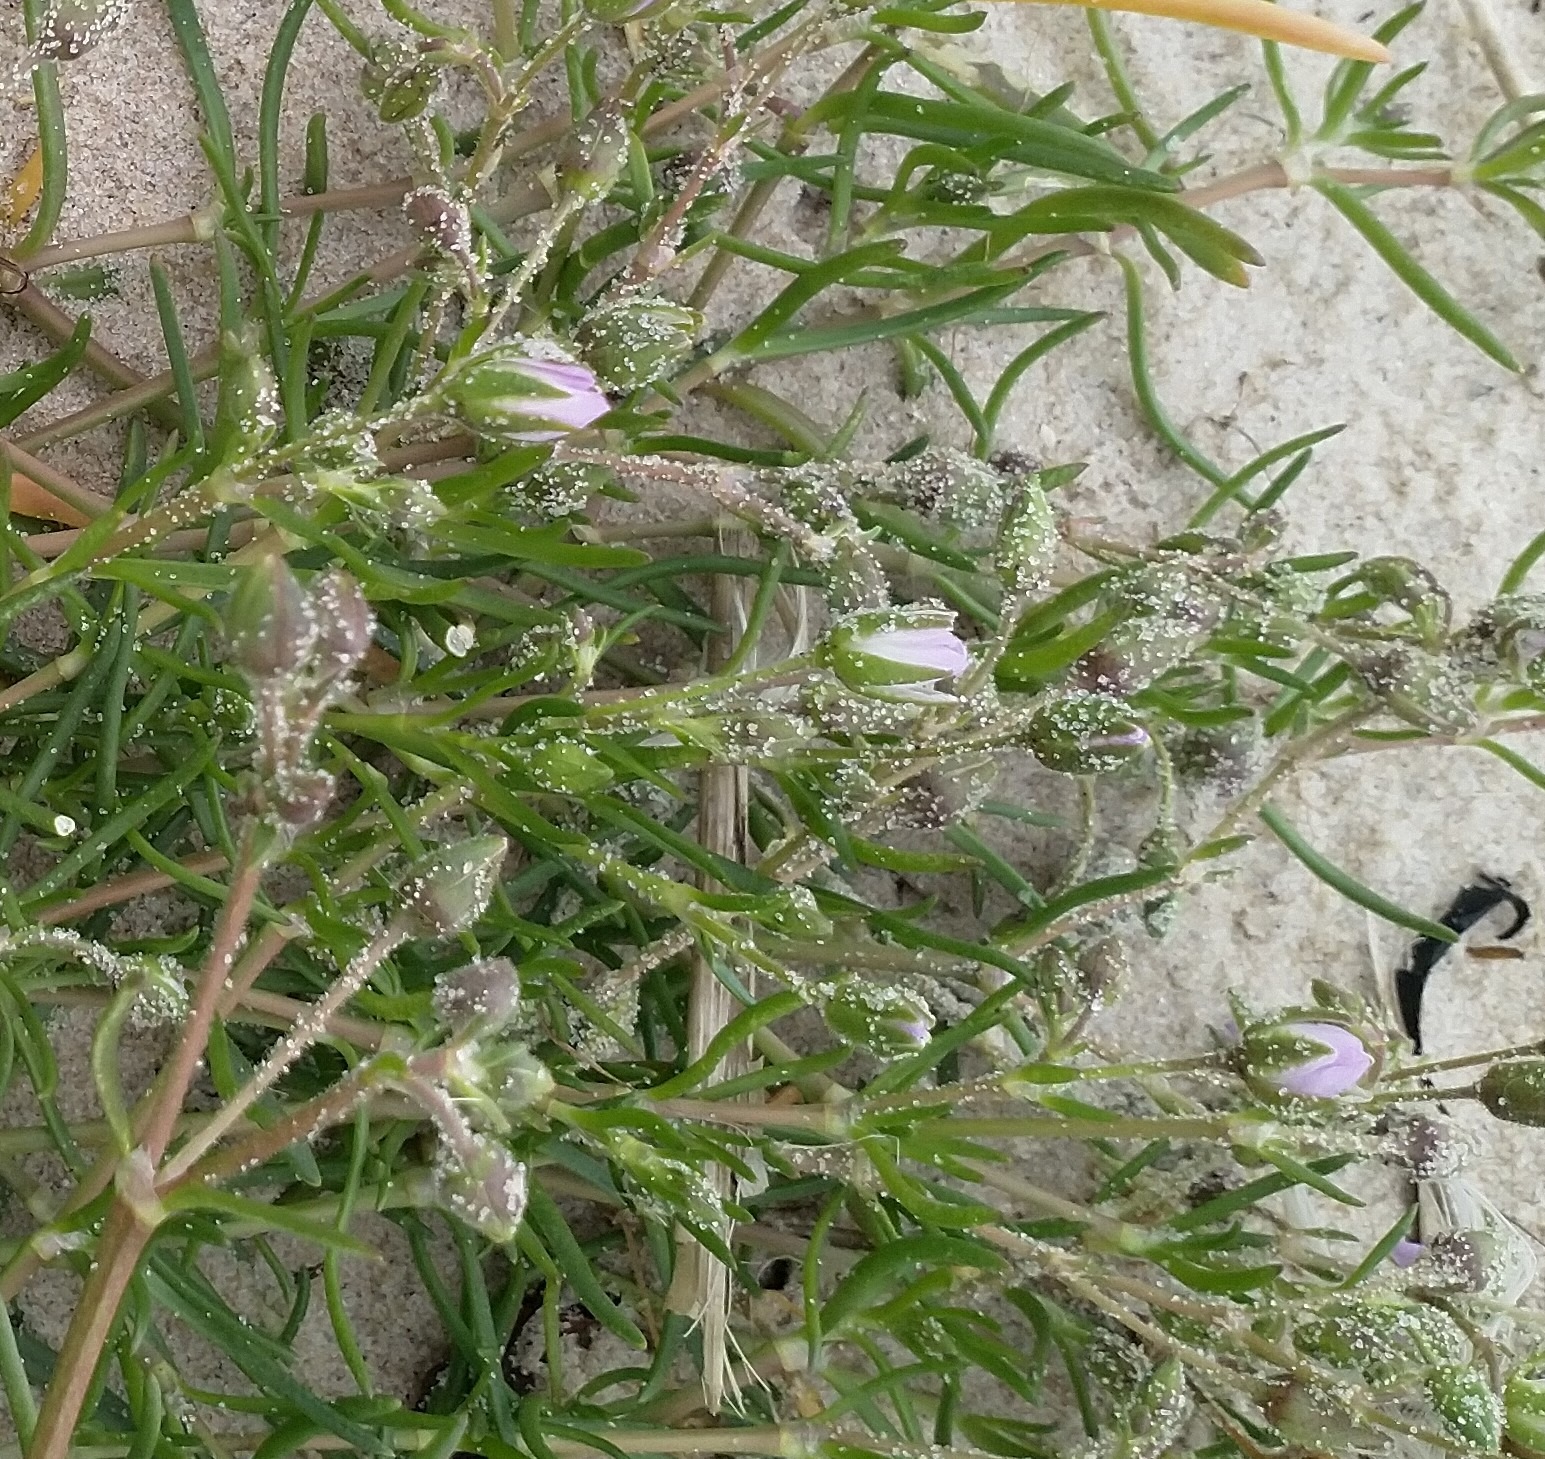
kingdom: Plantae
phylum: Tracheophyta
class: Magnoliopsida
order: Caryophyllales
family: Caryophyllaceae
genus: Spergularia
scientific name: Spergularia marina
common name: Kødet hindeknæ
